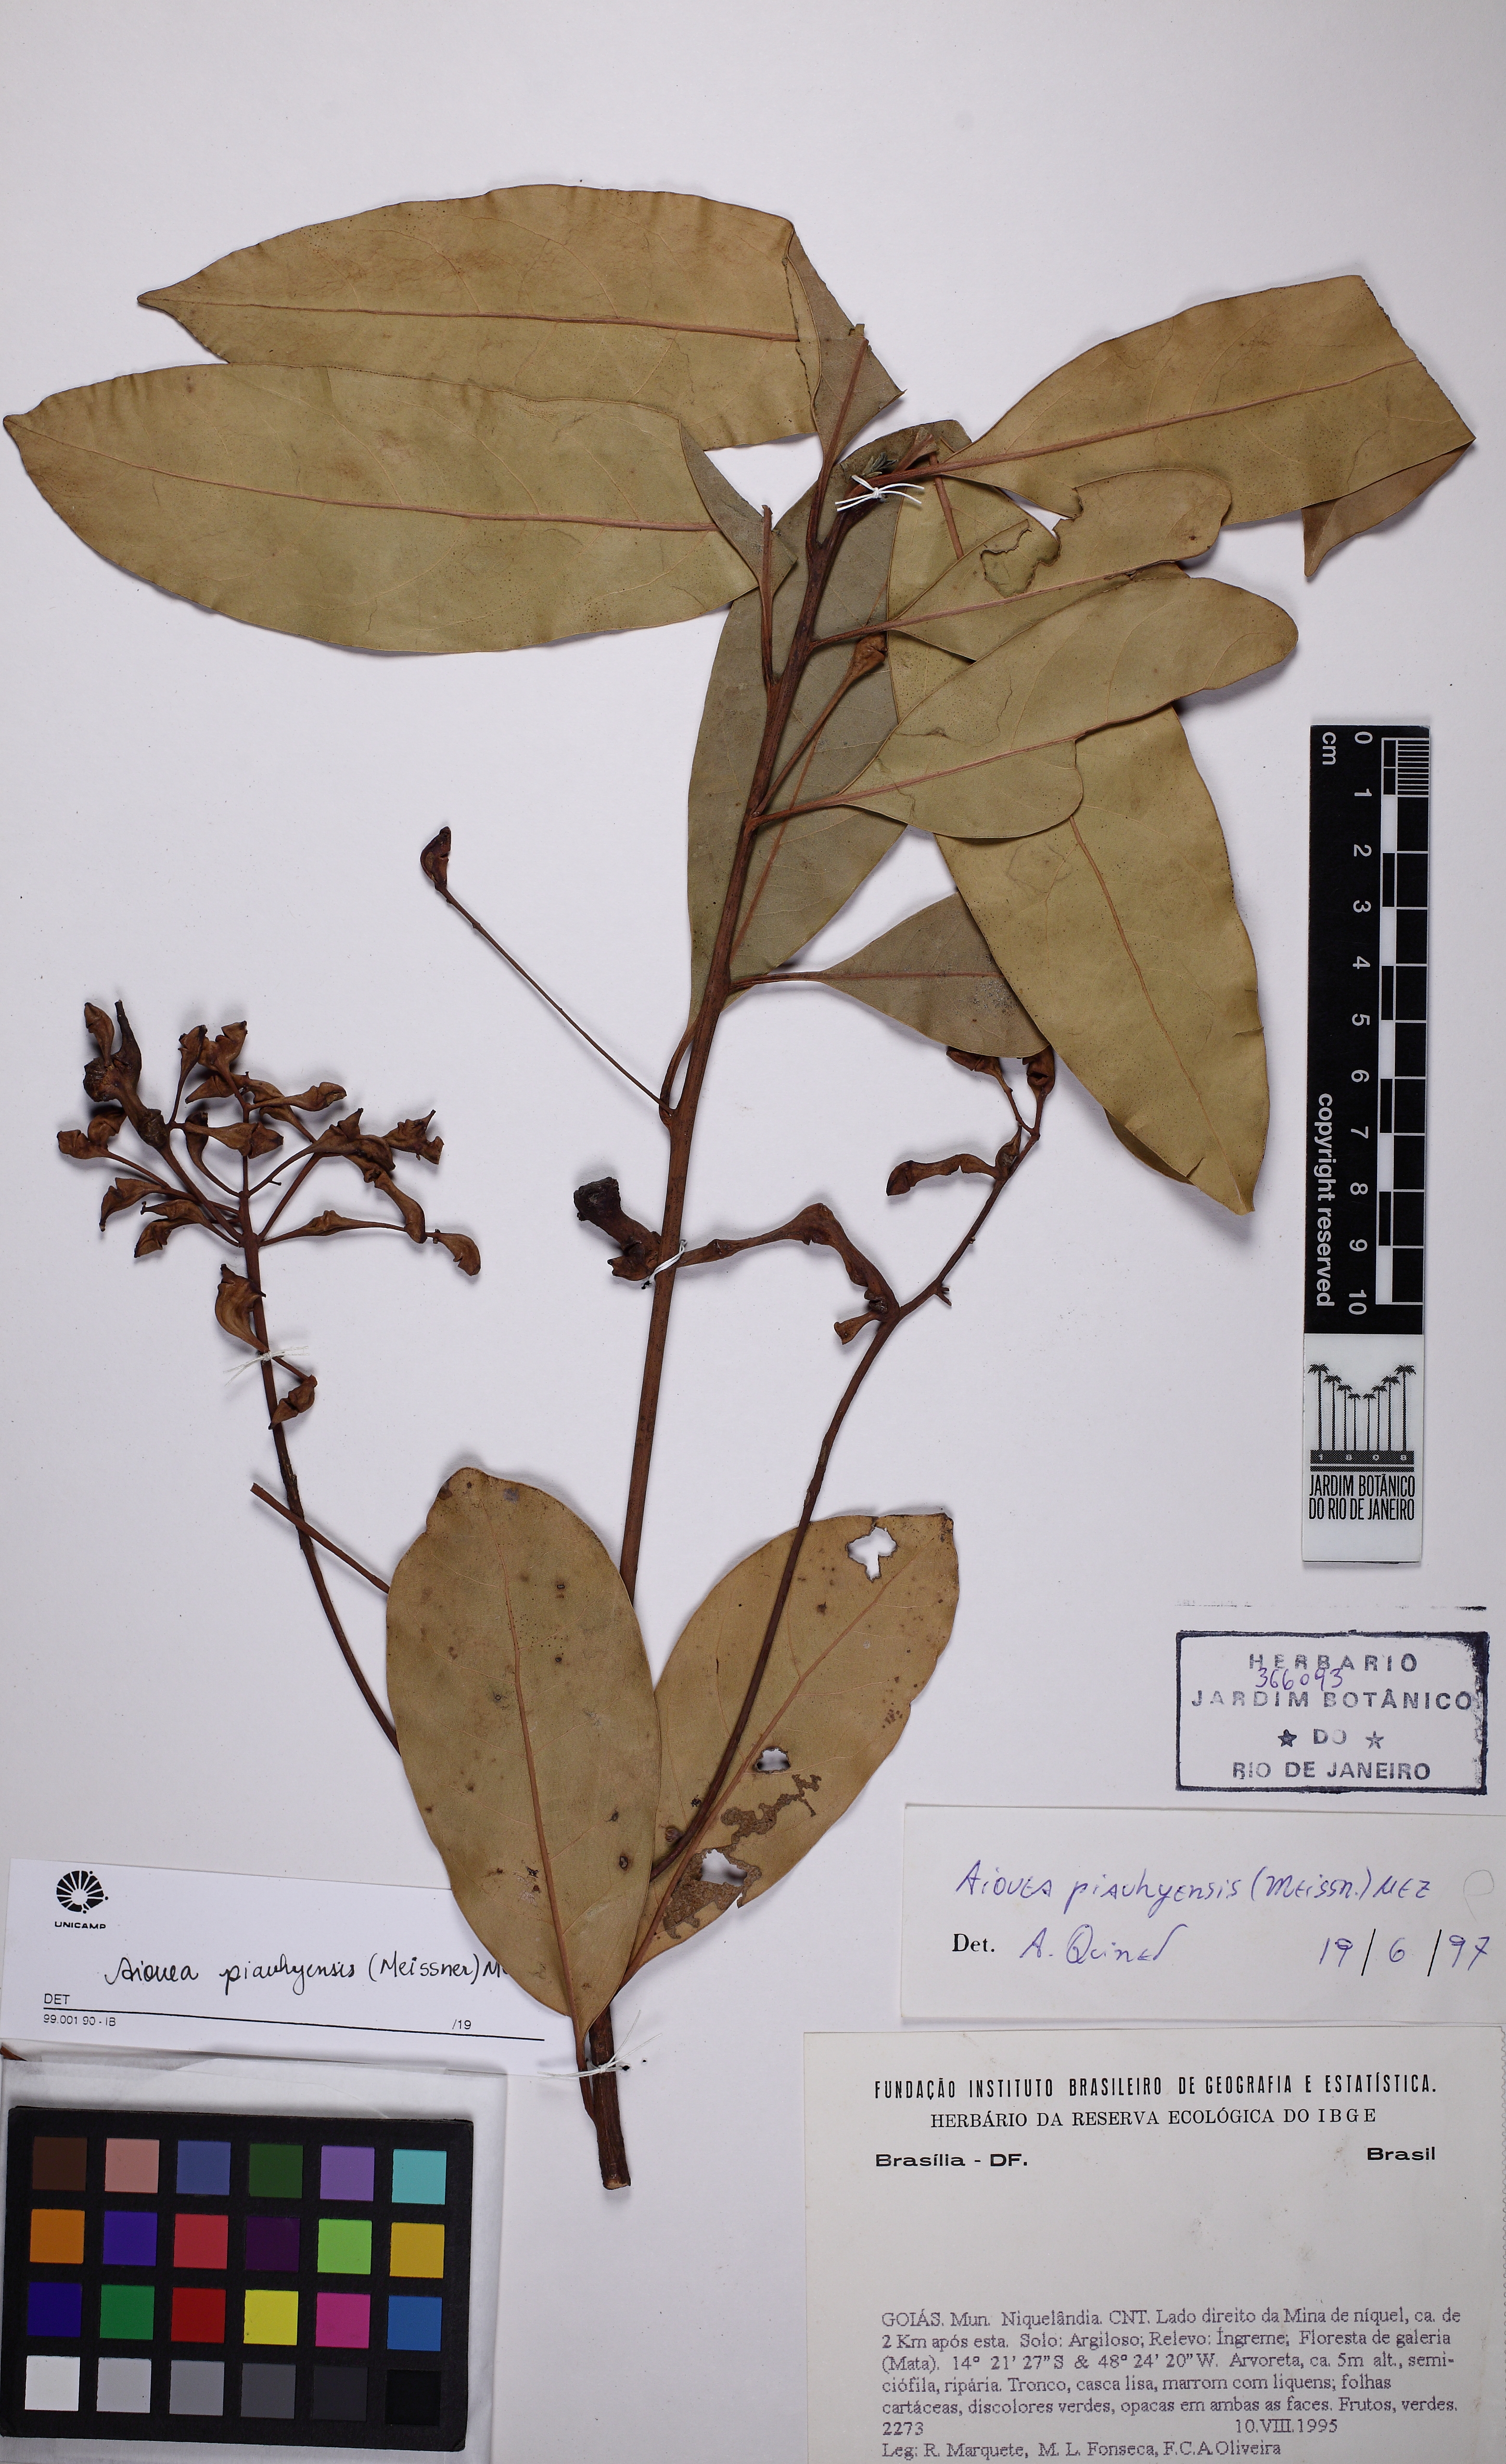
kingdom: Plantae
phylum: Tracheophyta
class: Magnoliopsida
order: Laurales
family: Lauraceae
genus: Aiouea
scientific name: Aiouea piauhyensis
